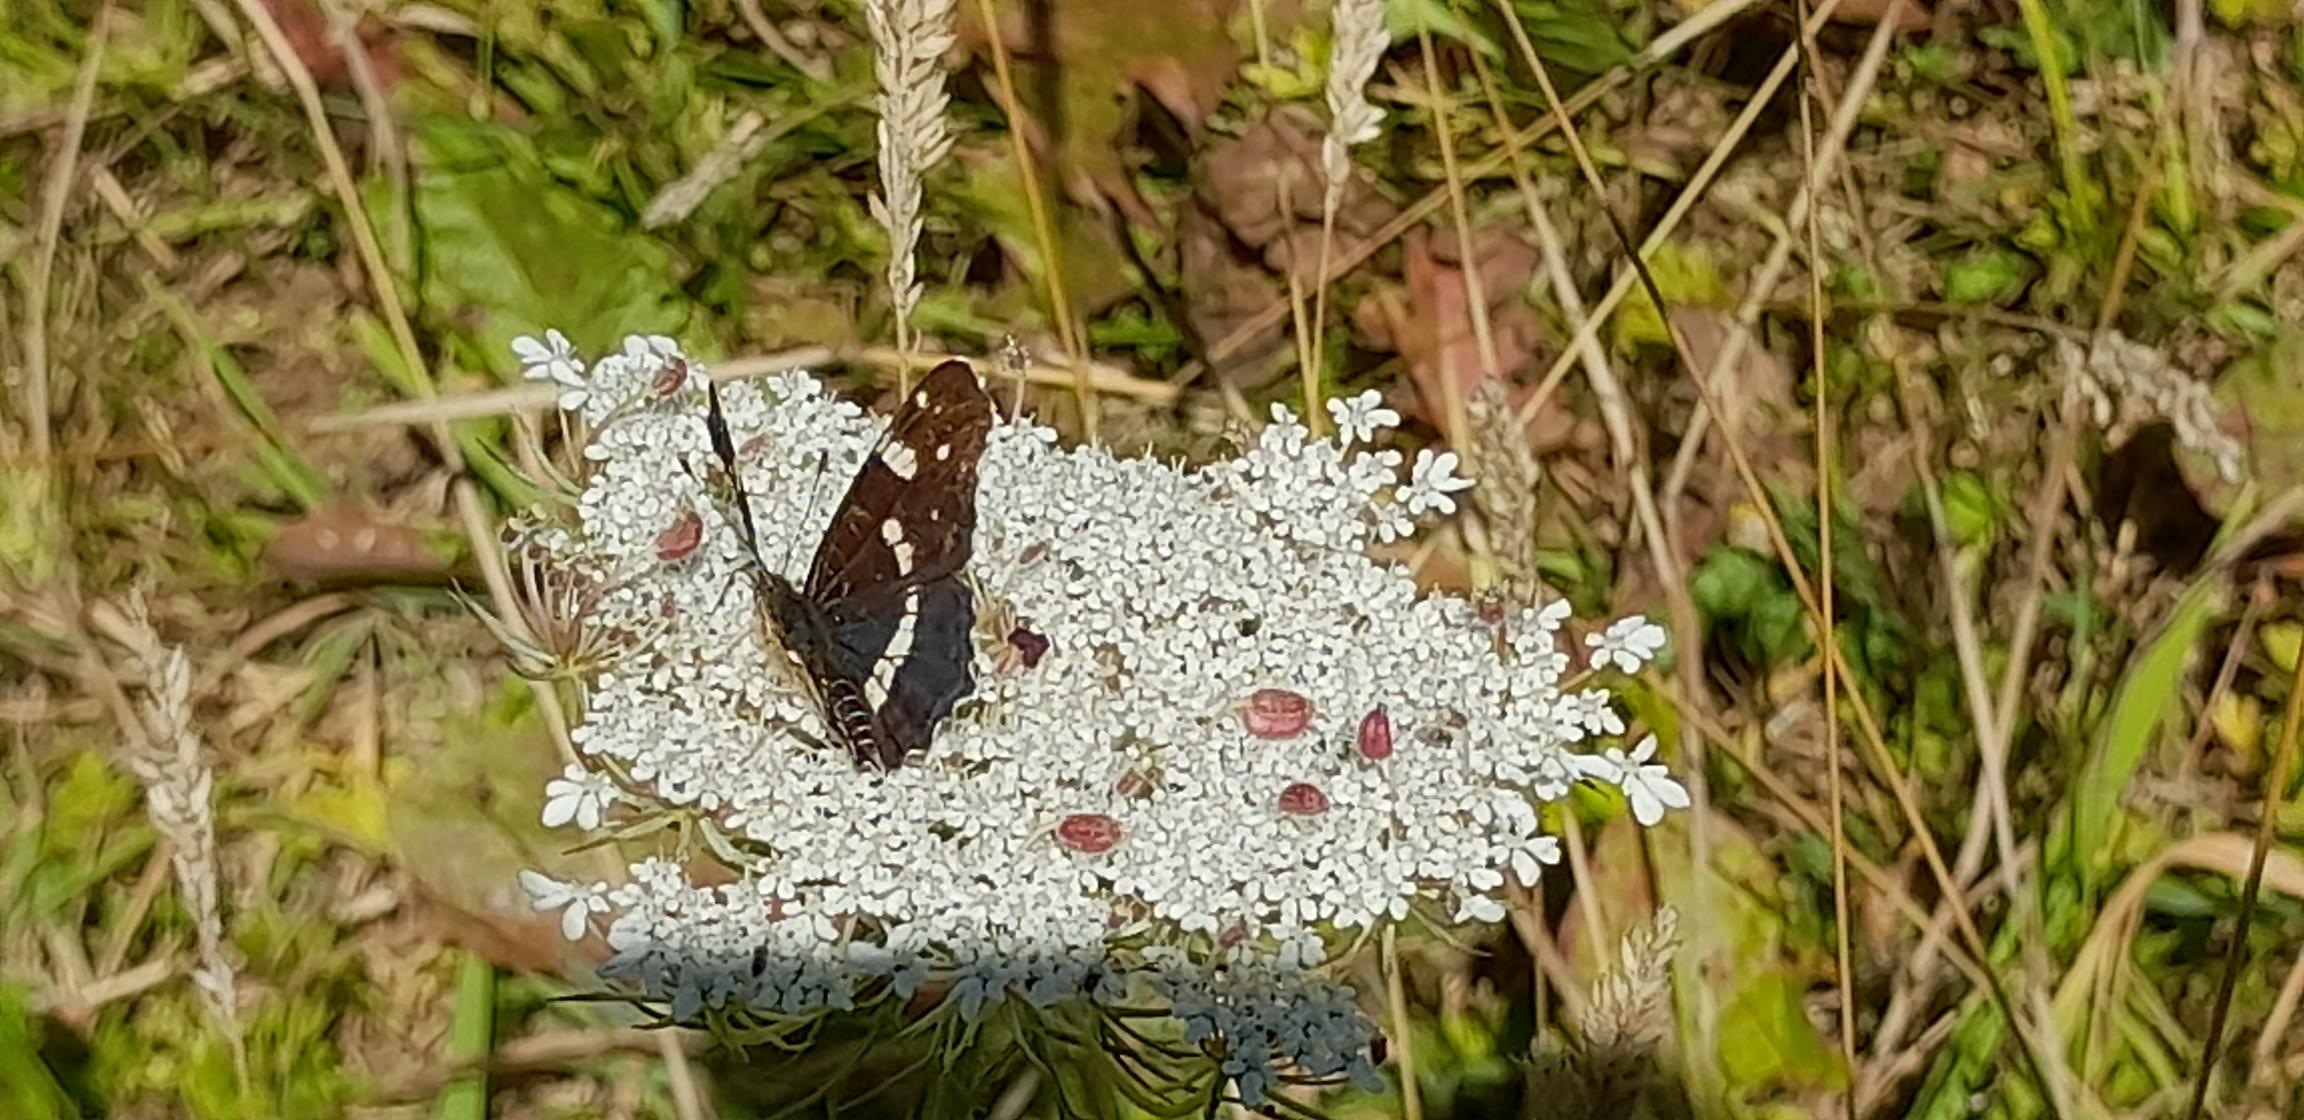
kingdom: Animalia
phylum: Arthropoda
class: Insecta
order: Lepidoptera
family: Nymphalidae
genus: Araschnia
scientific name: Araschnia levana
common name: Nældesommerfugl
